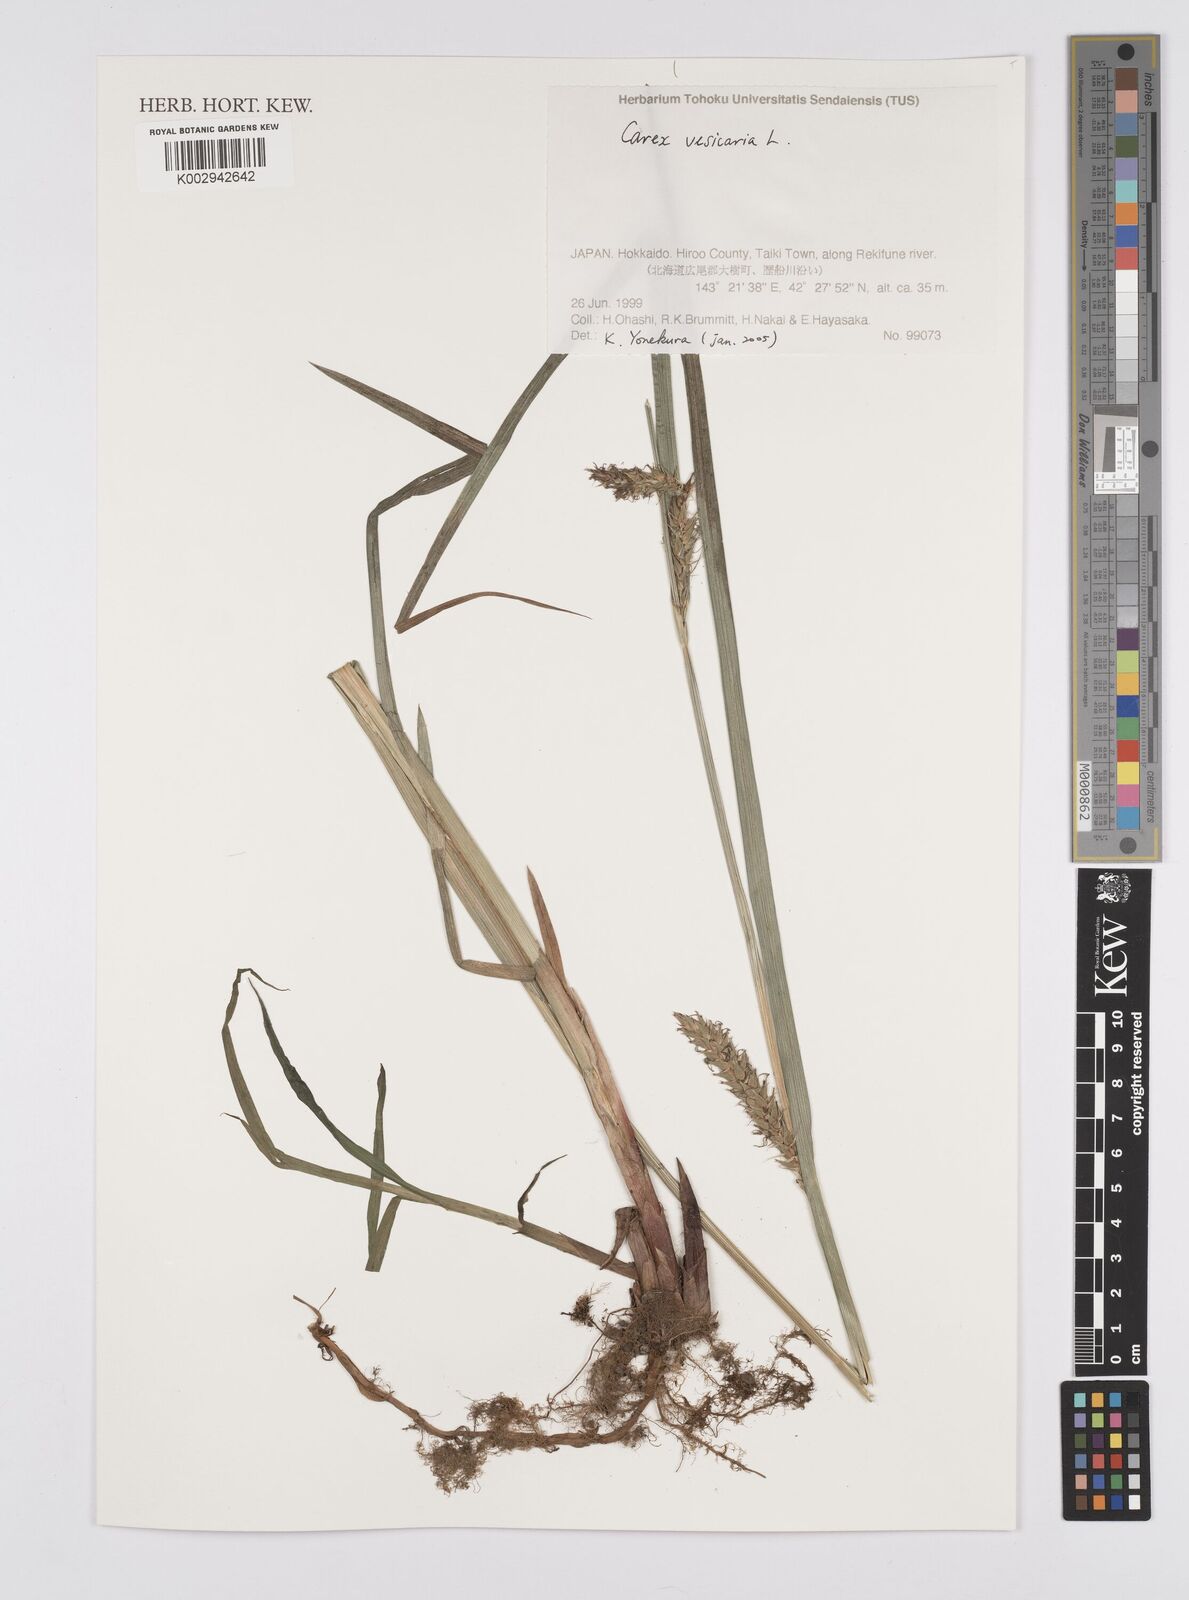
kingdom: Plantae
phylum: Tracheophyta
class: Liliopsida
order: Poales
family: Cyperaceae
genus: Carex
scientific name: Carex vesicaria
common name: Bladder-sedge
